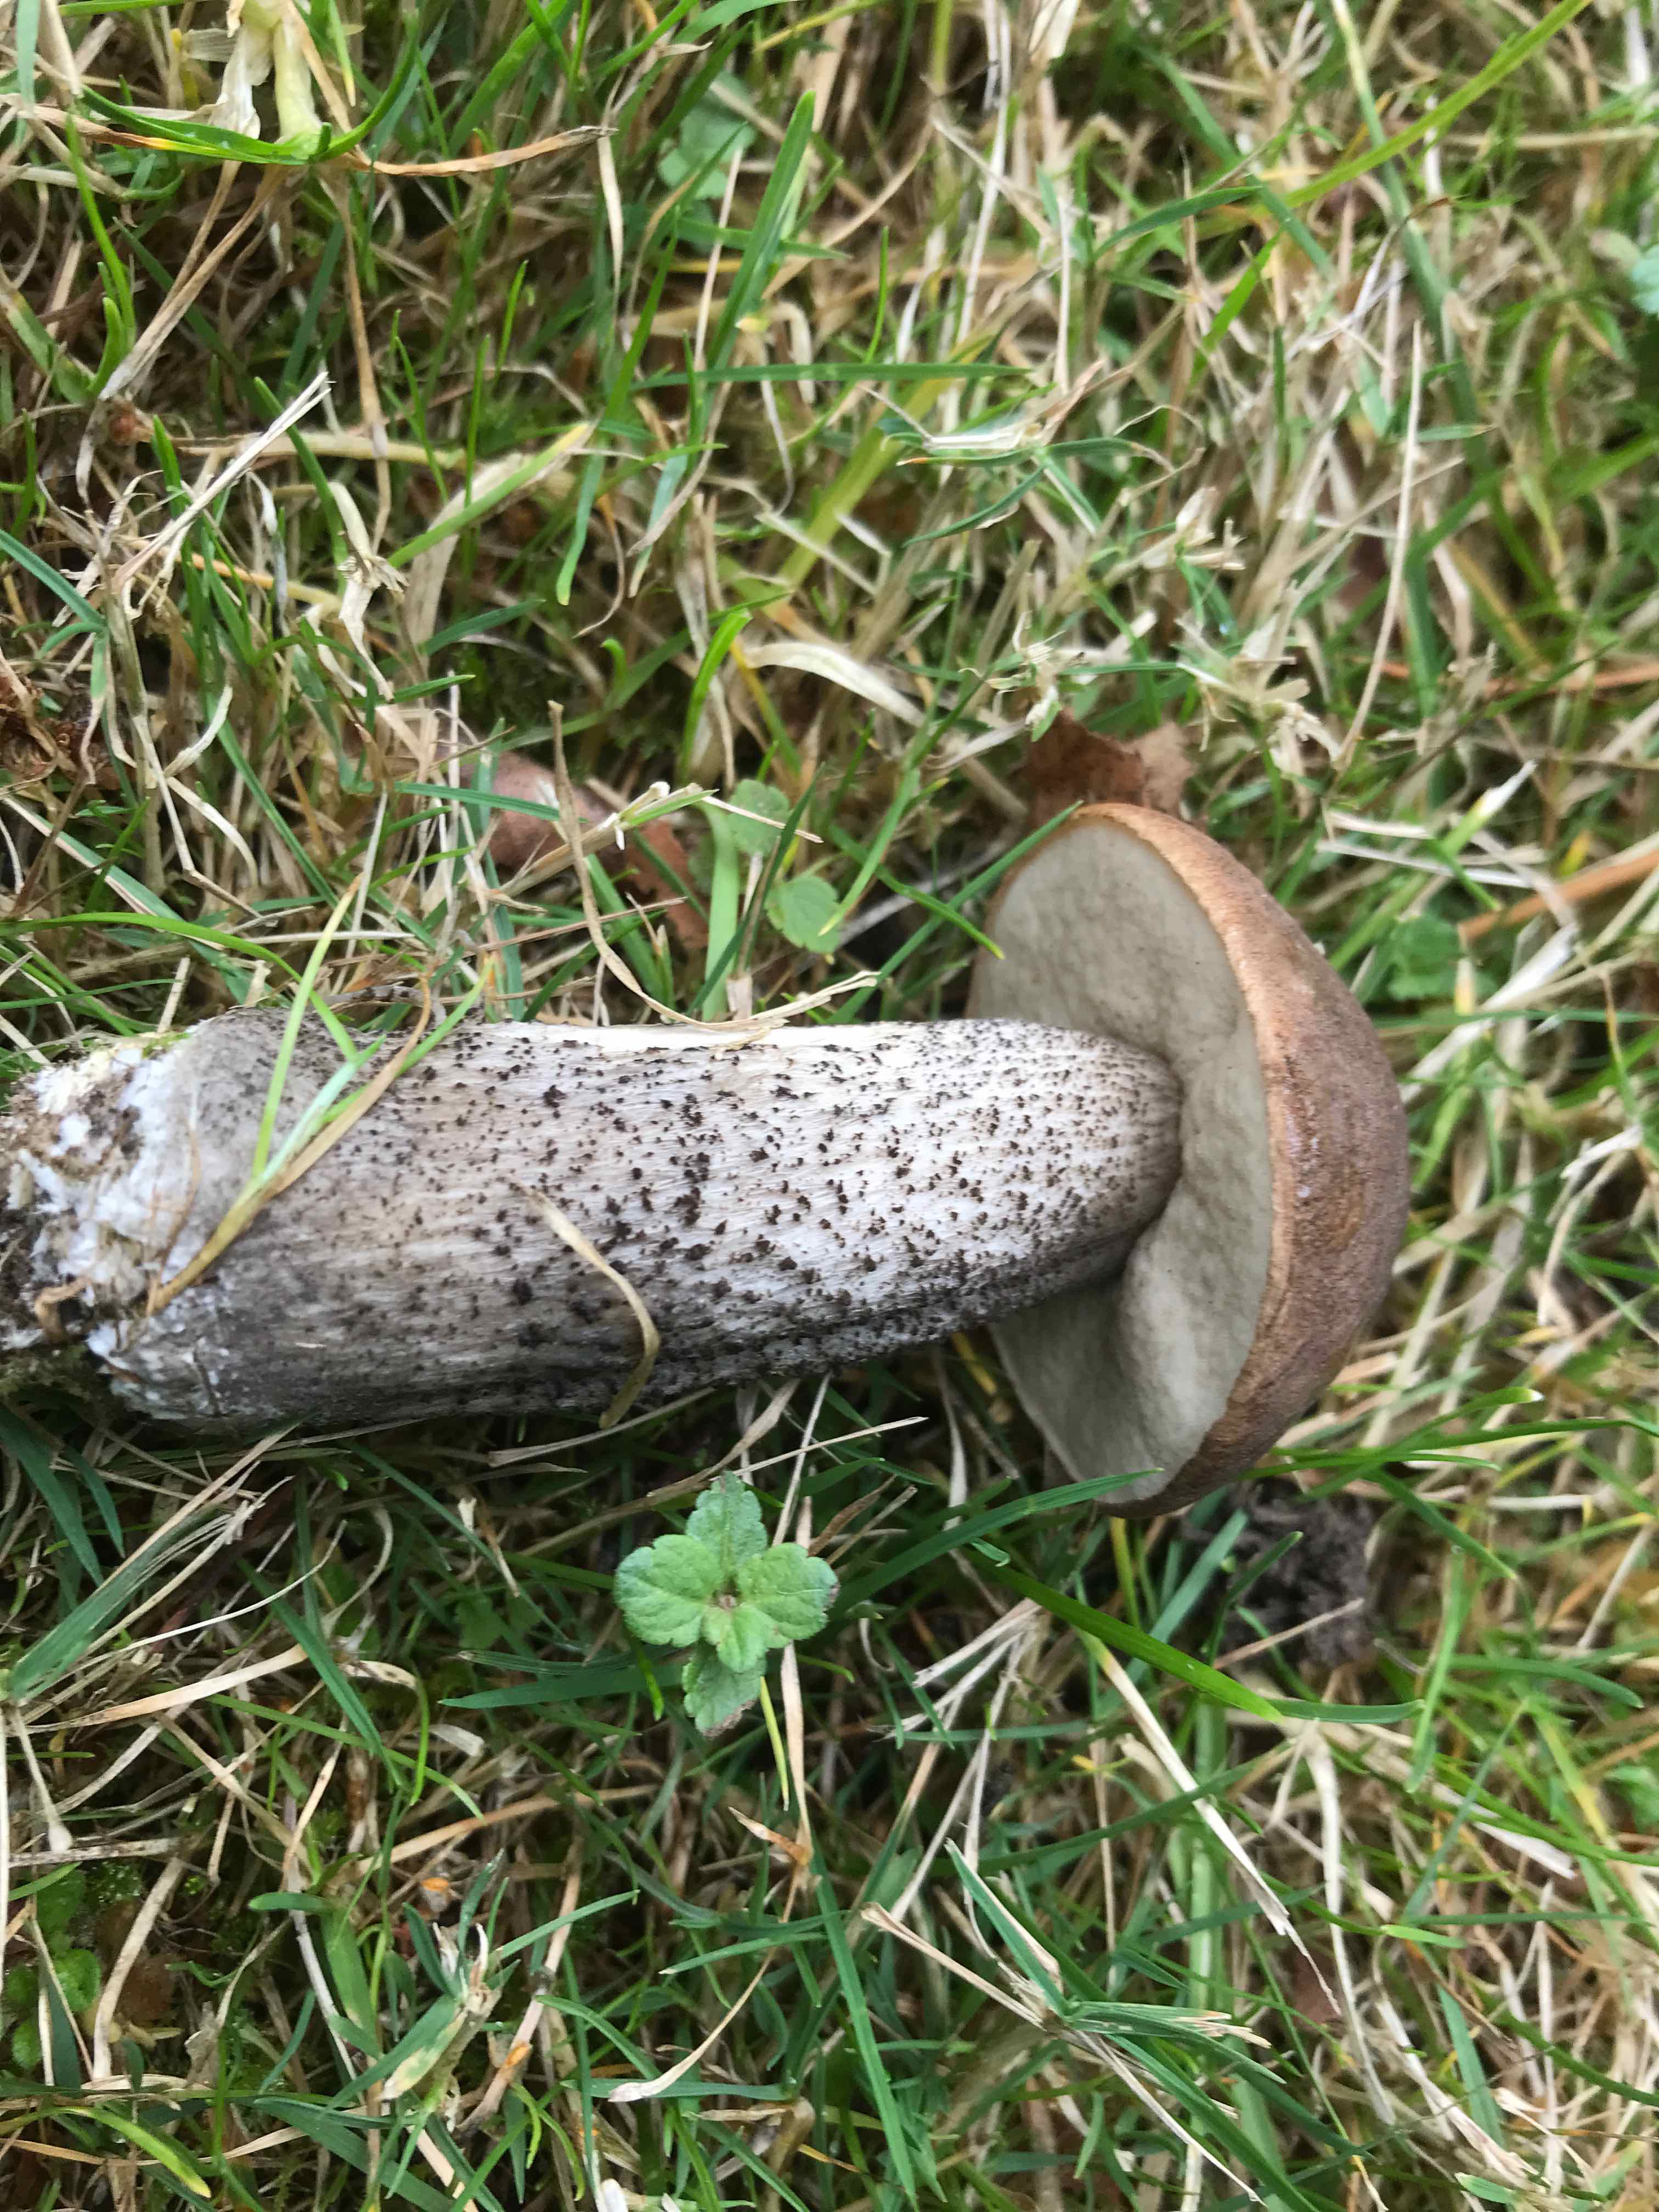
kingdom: Fungi
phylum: Basidiomycota
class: Agaricomycetes
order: Boletales
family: Boletaceae
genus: Leccinum
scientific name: Leccinum scabrum
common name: brun skælrørhat
